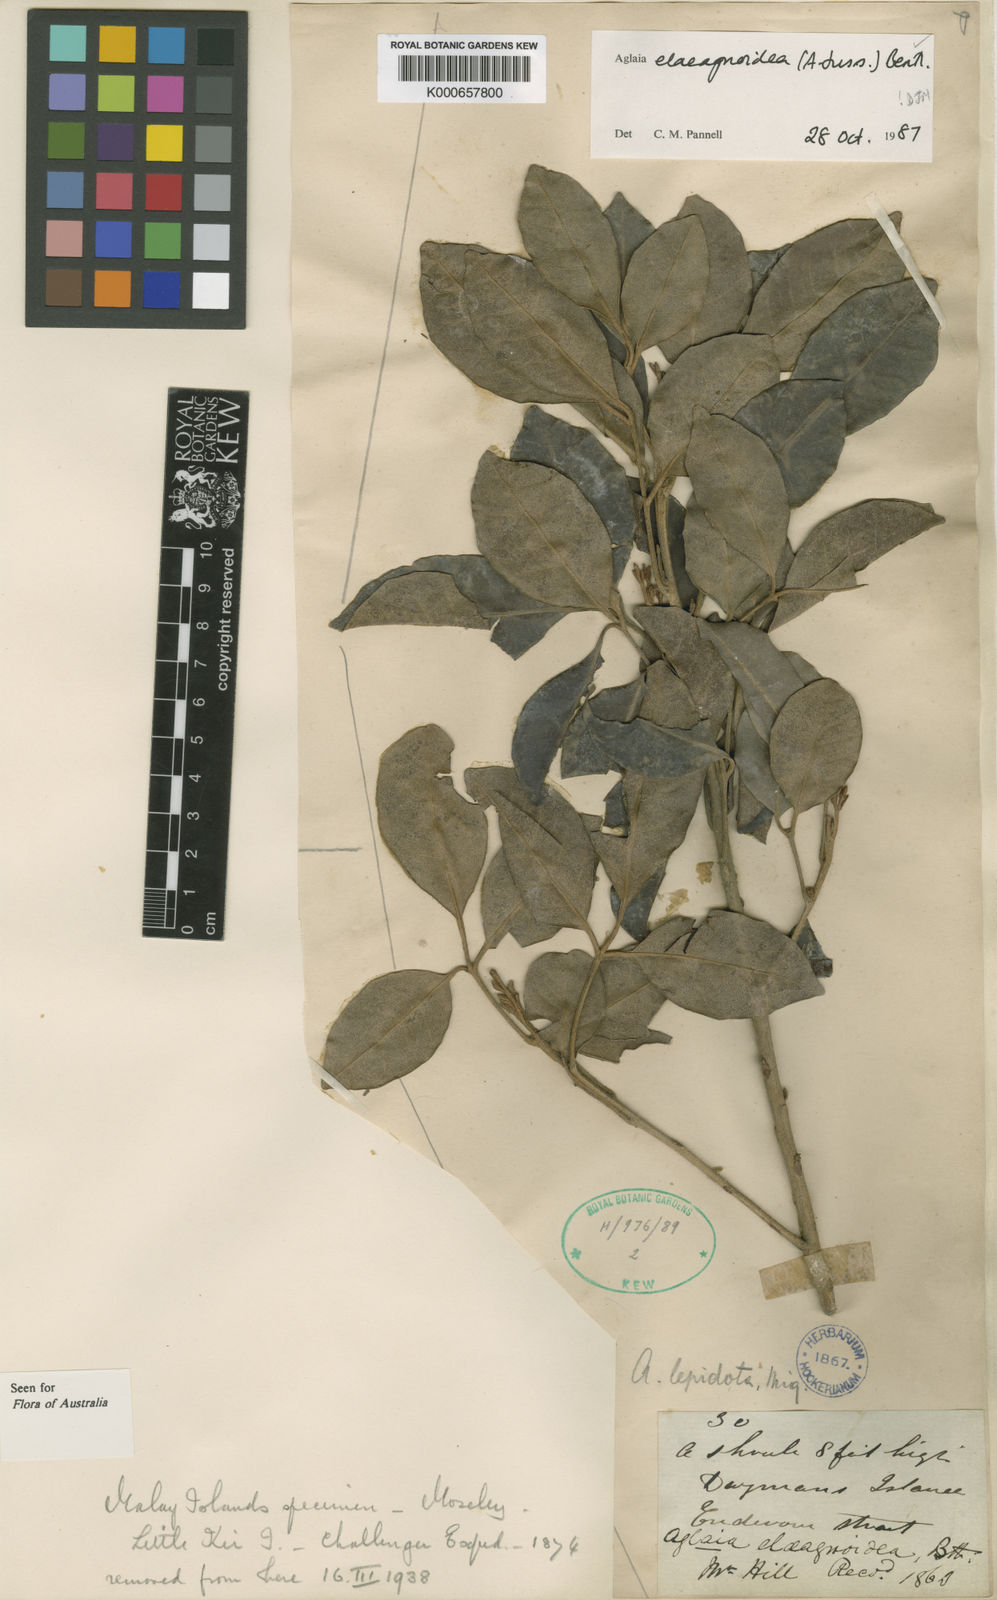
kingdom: Plantae
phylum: Tracheophyta
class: Magnoliopsida
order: Sapindales
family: Meliaceae
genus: Aglaia
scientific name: Aglaia elaeagnoidea
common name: Droopyleaf
